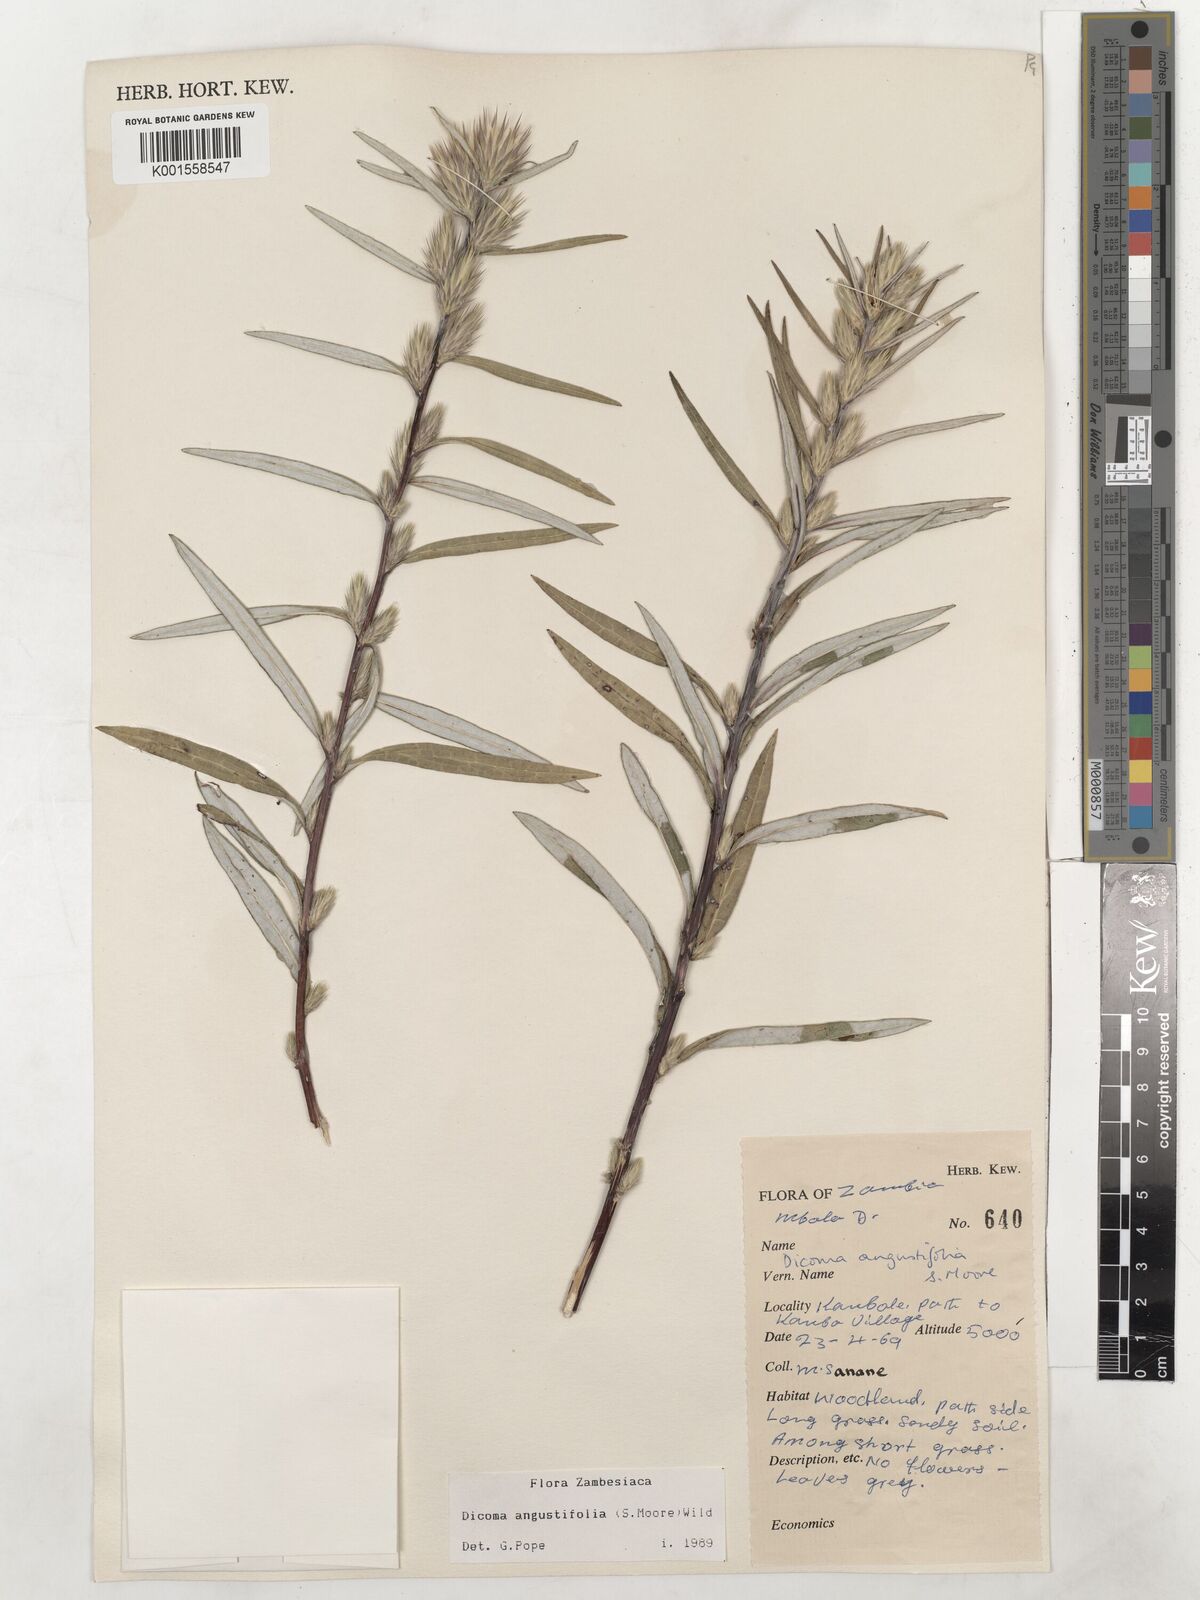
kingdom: Plantae
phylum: Tracheophyta
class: Magnoliopsida
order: Asterales
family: Asteraceae
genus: Macledium
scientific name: Macledium poggei
